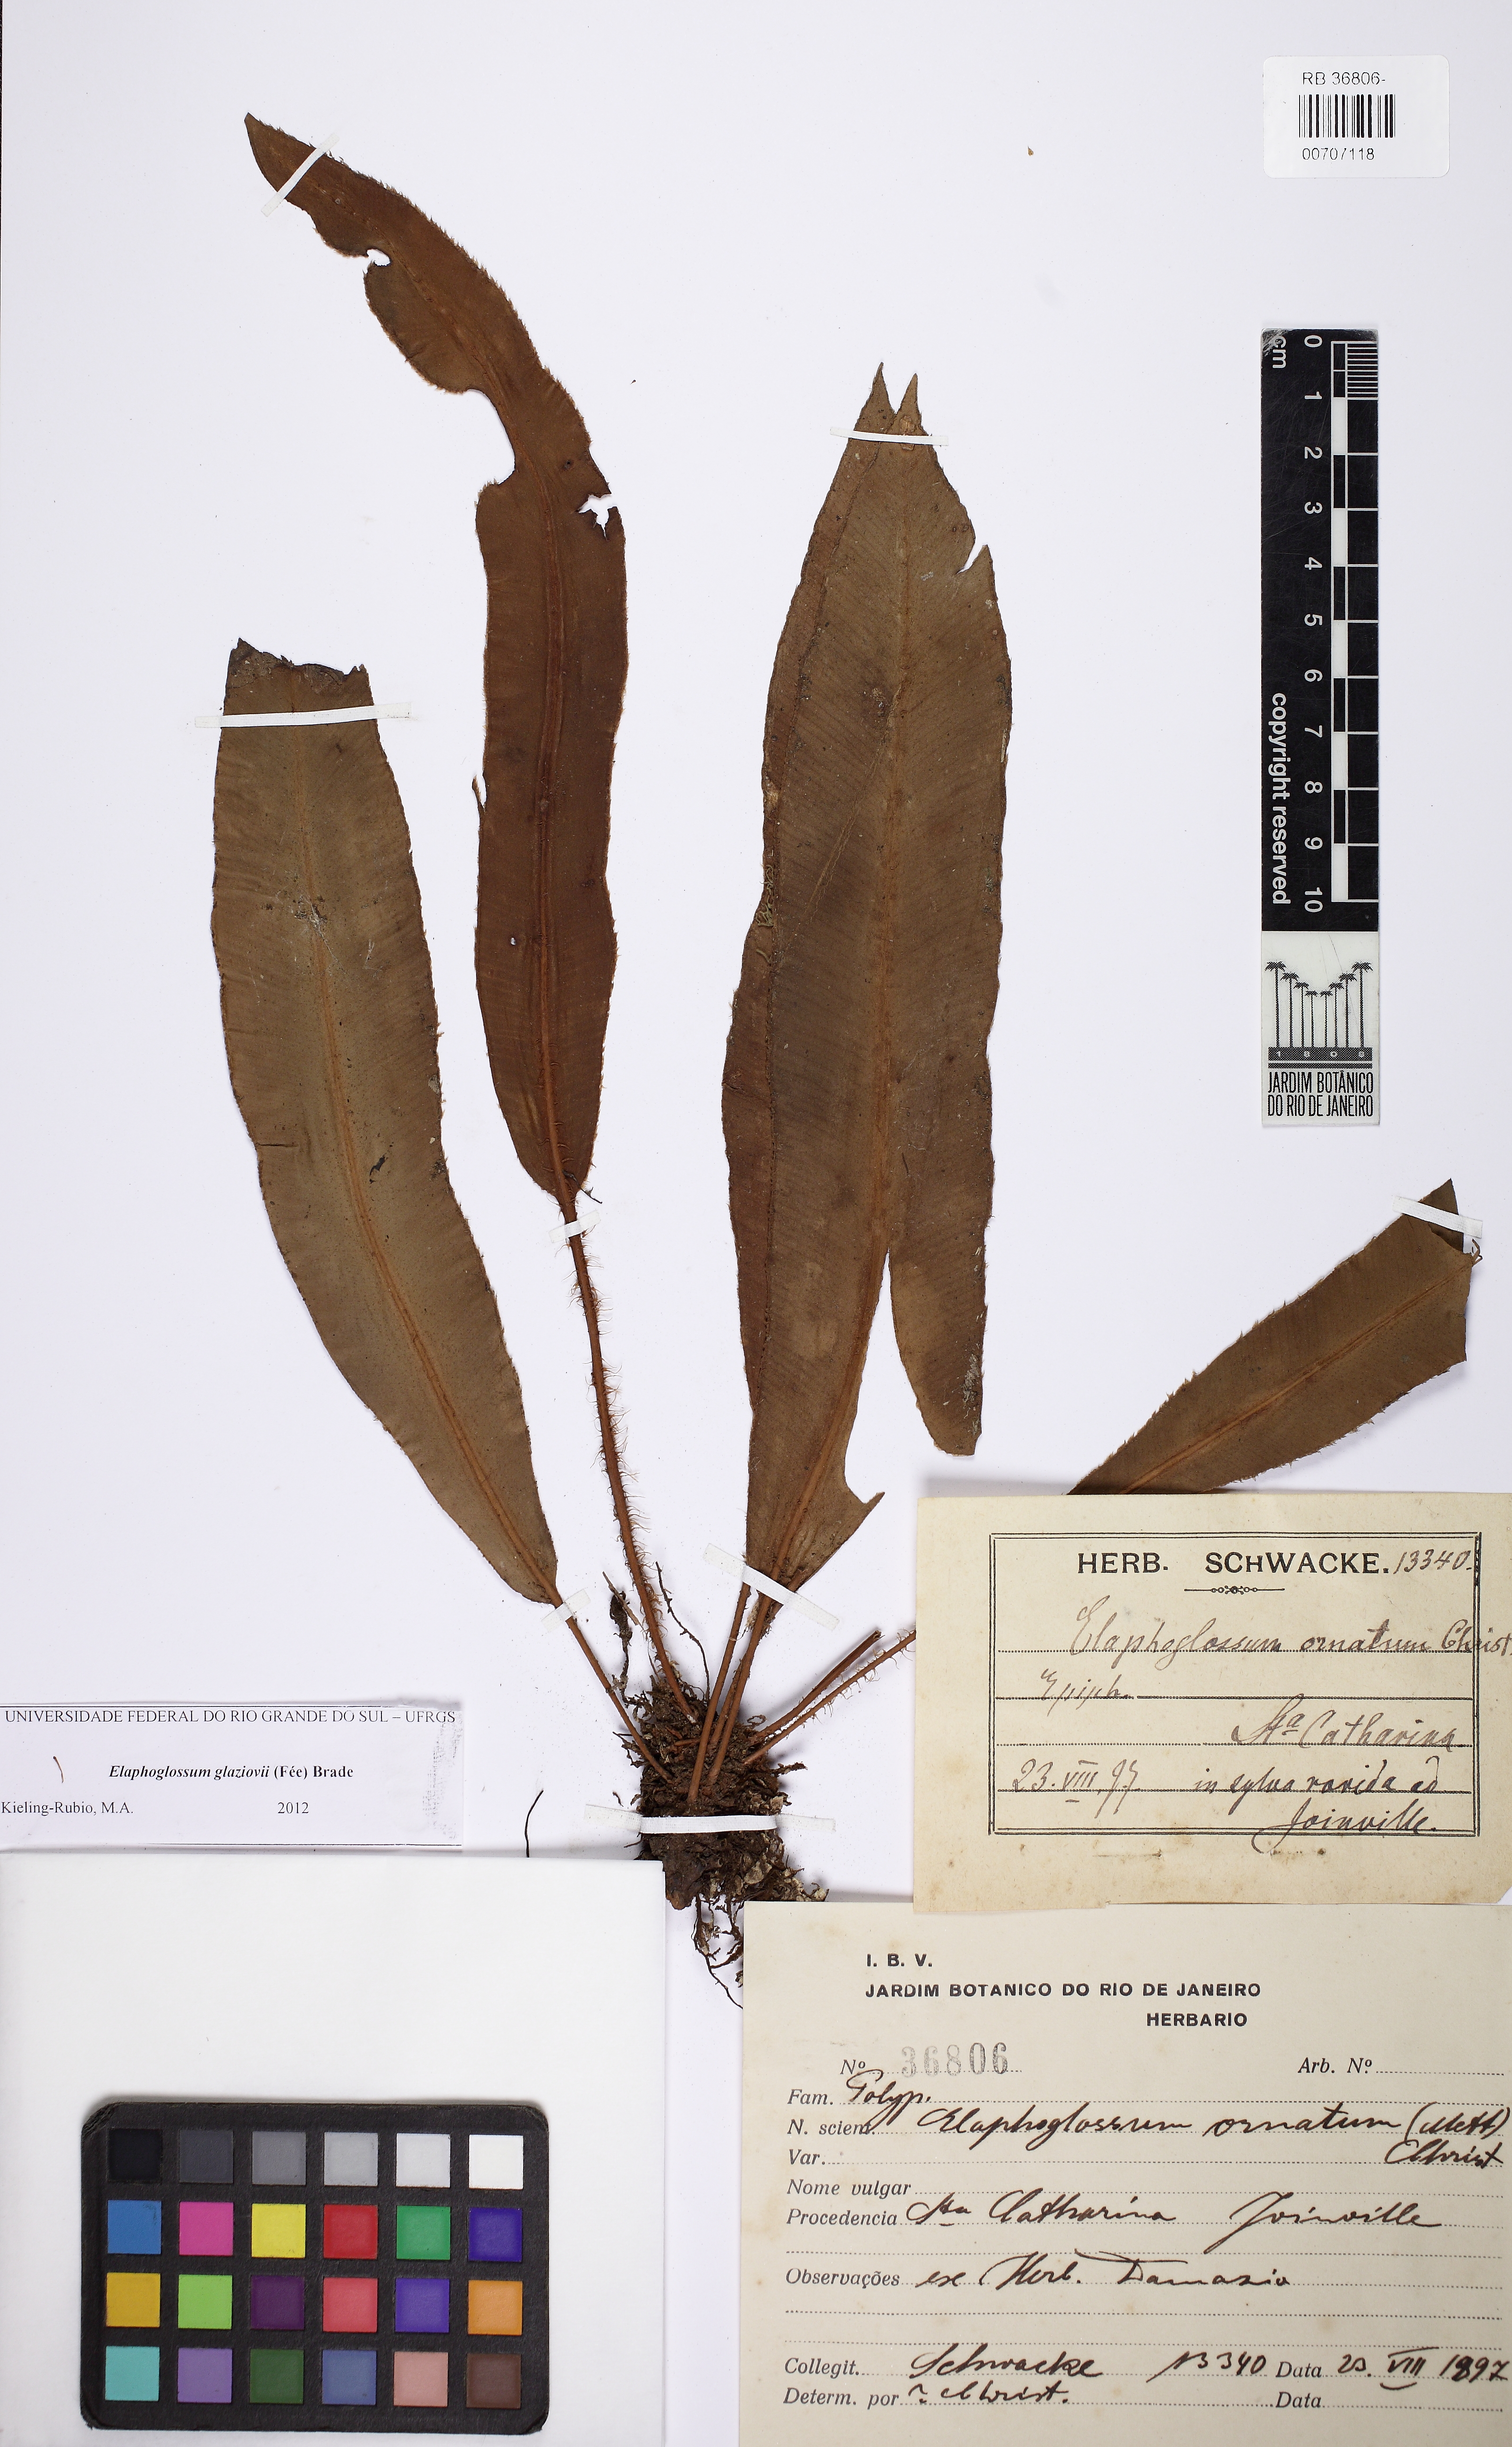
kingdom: Plantae
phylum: Tracheophyta
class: Polypodiopsida
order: Polypodiales
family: Dryopteridaceae
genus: Elaphoglossum
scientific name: Elaphoglossum glaziovii
